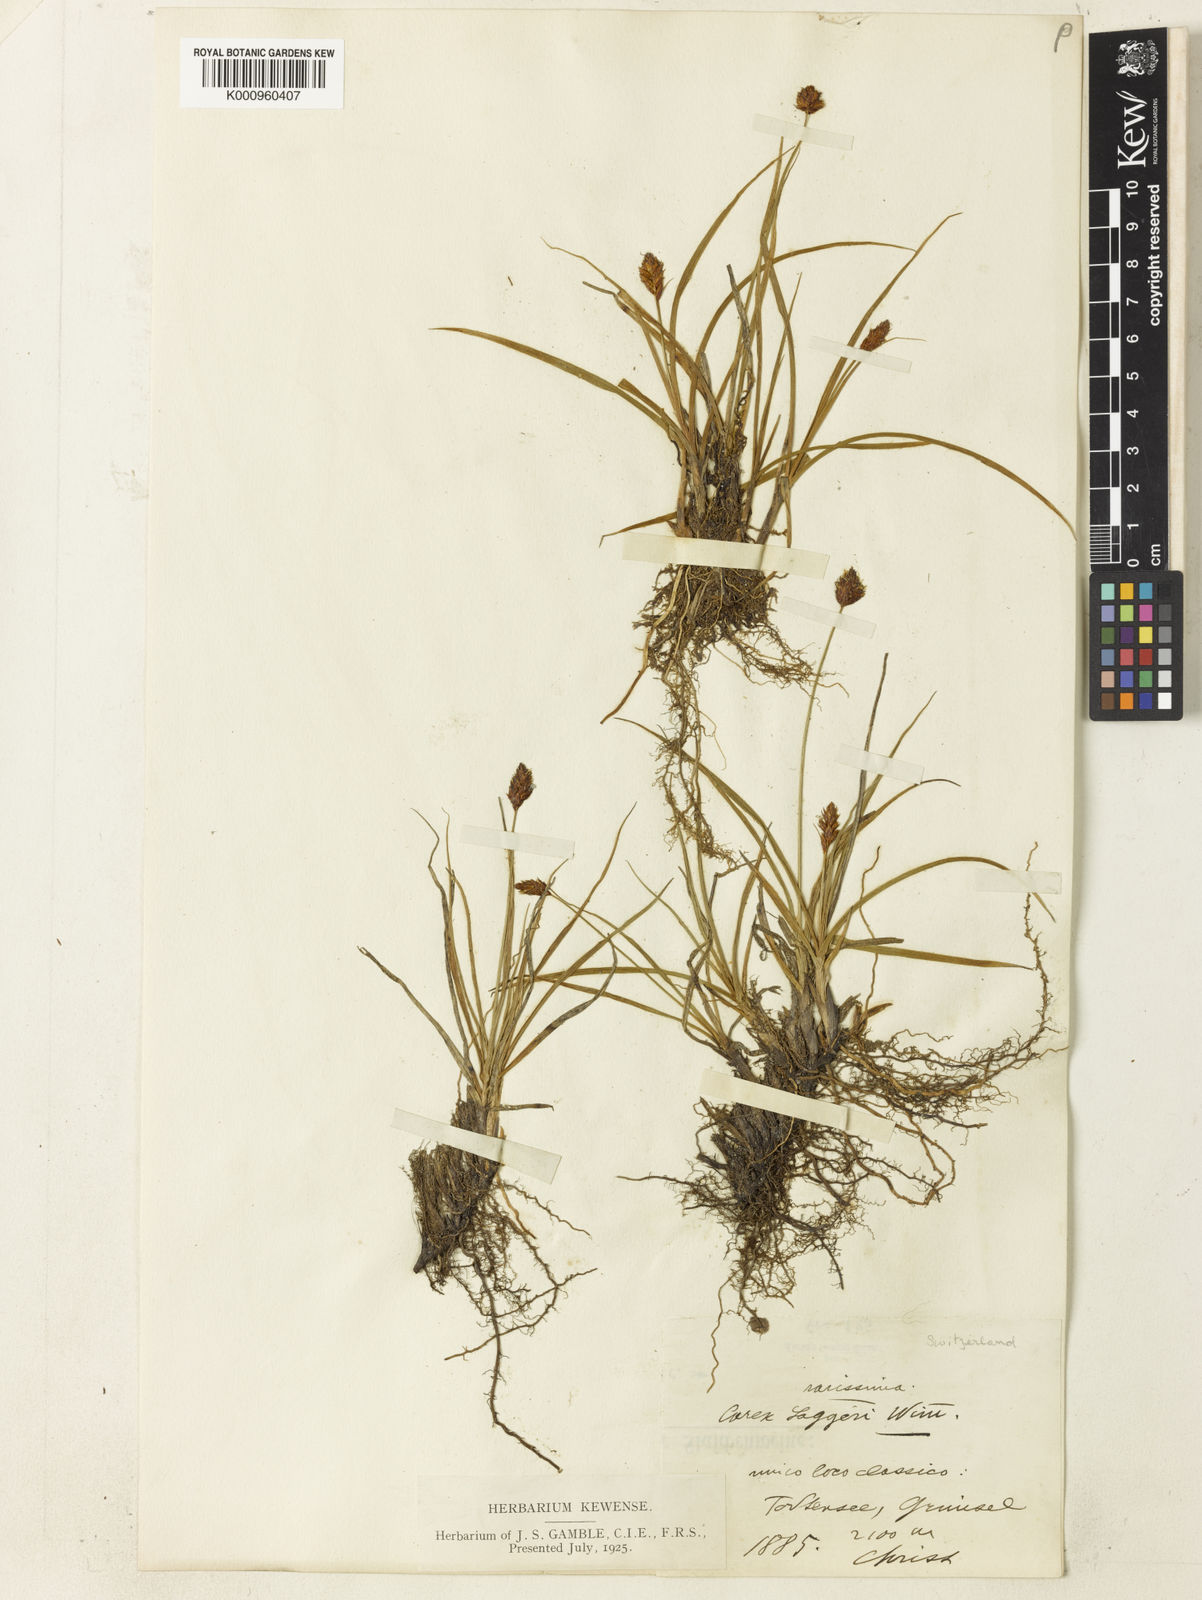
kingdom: Plantae
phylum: Tracheophyta
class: Liliopsida
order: Poales
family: Cyperaceae
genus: Carex
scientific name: Carex foetida
